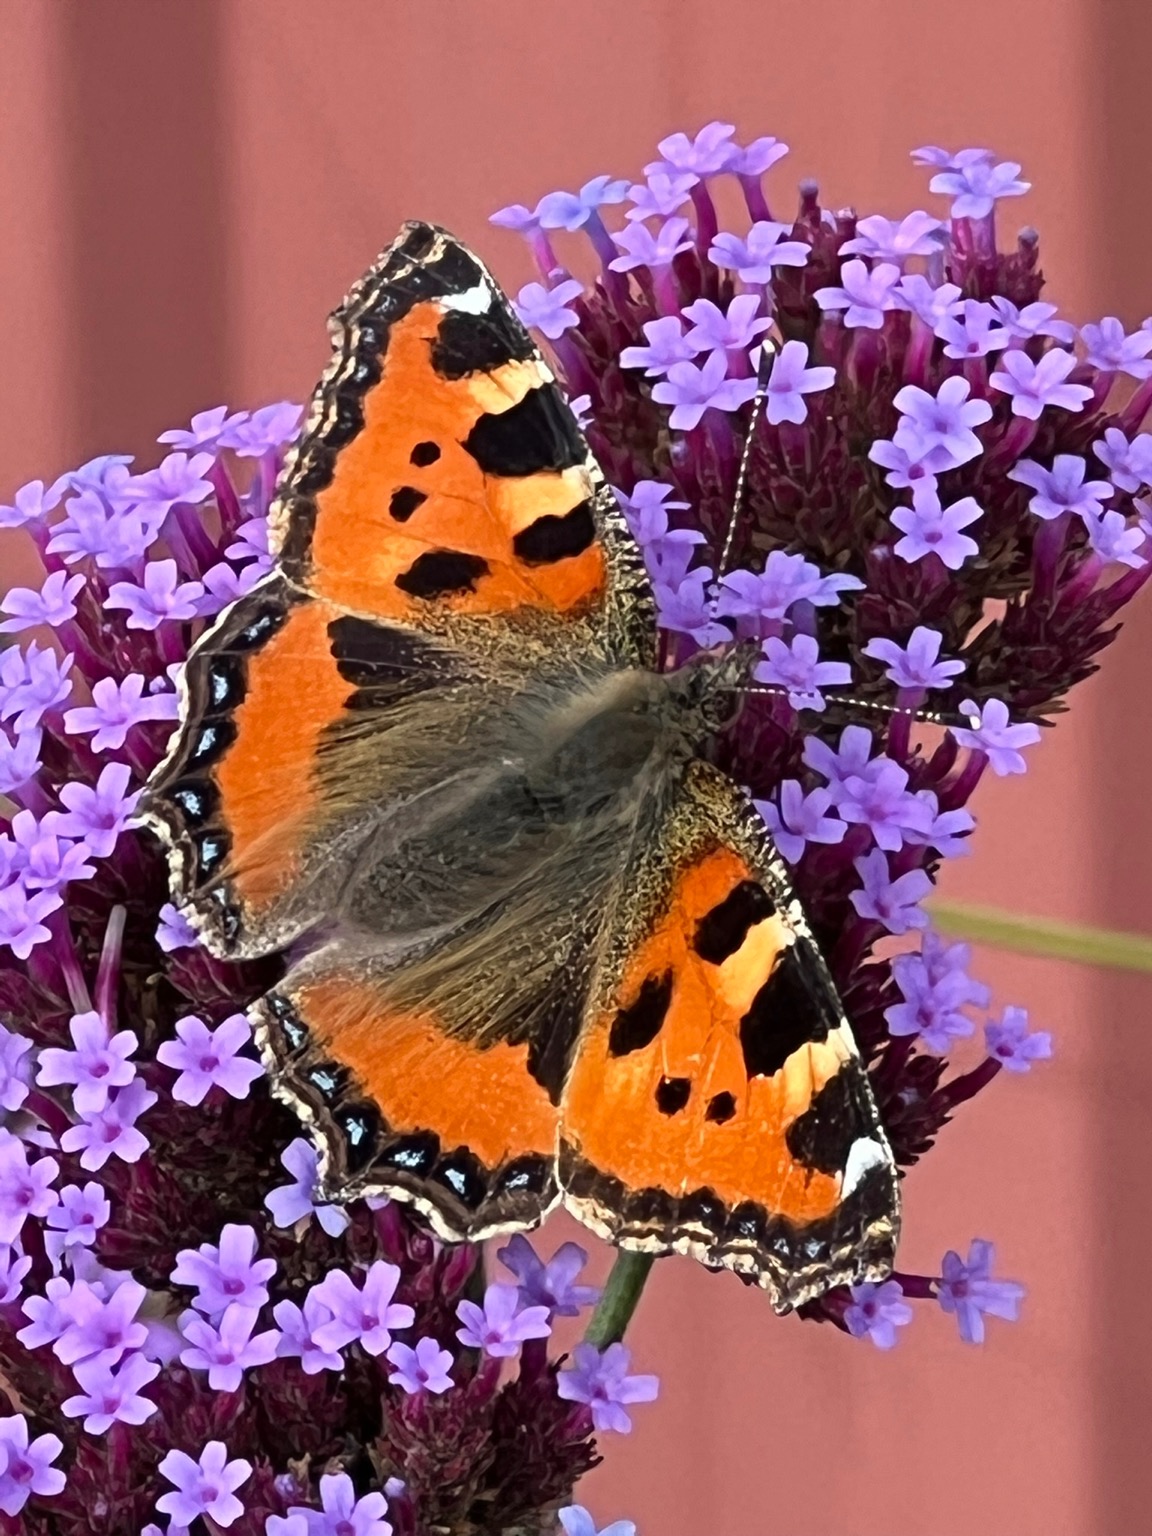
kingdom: Animalia
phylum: Arthropoda
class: Insecta
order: Lepidoptera
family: Nymphalidae
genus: Aglais
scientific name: Aglais urticae
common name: Nældens takvinge
